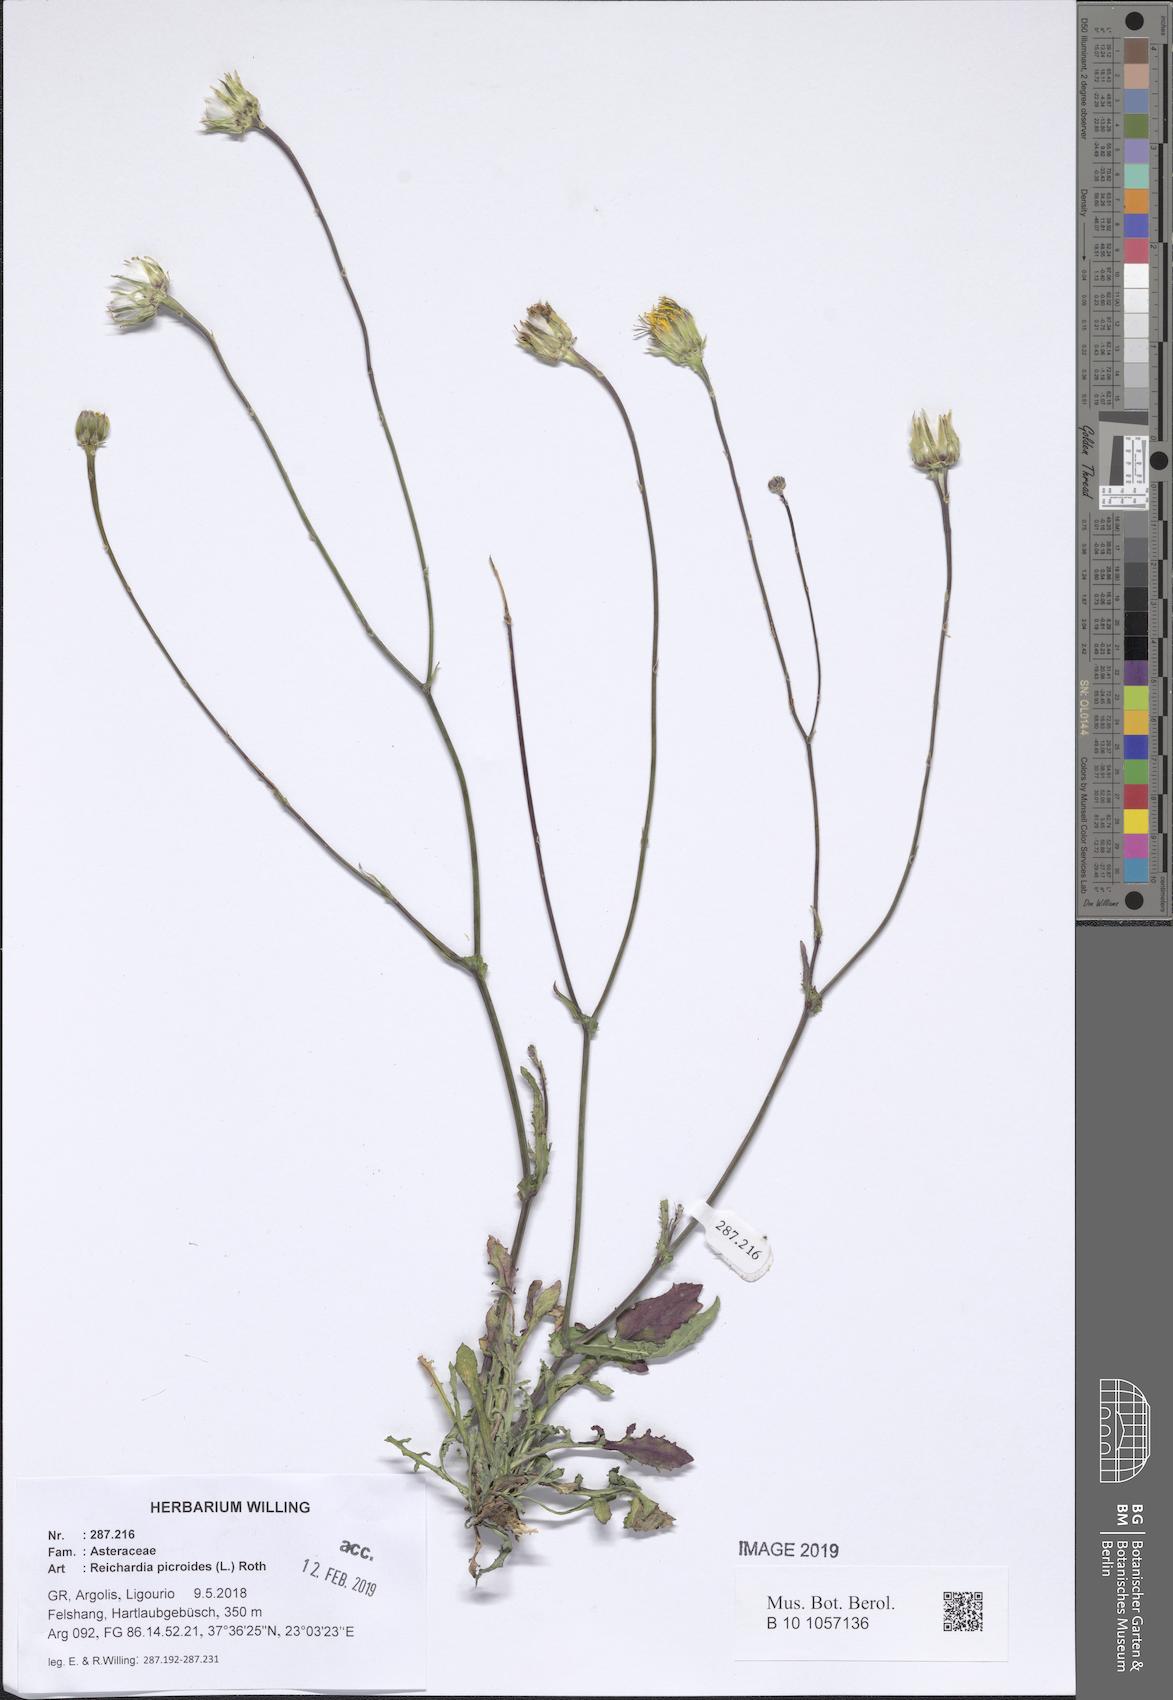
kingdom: Plantae
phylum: Tracheophyta
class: Magnoliopsida
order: Asterales
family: Asteraceae
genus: Reichardia
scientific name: Reichardia picroides
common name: Common brighteyes
